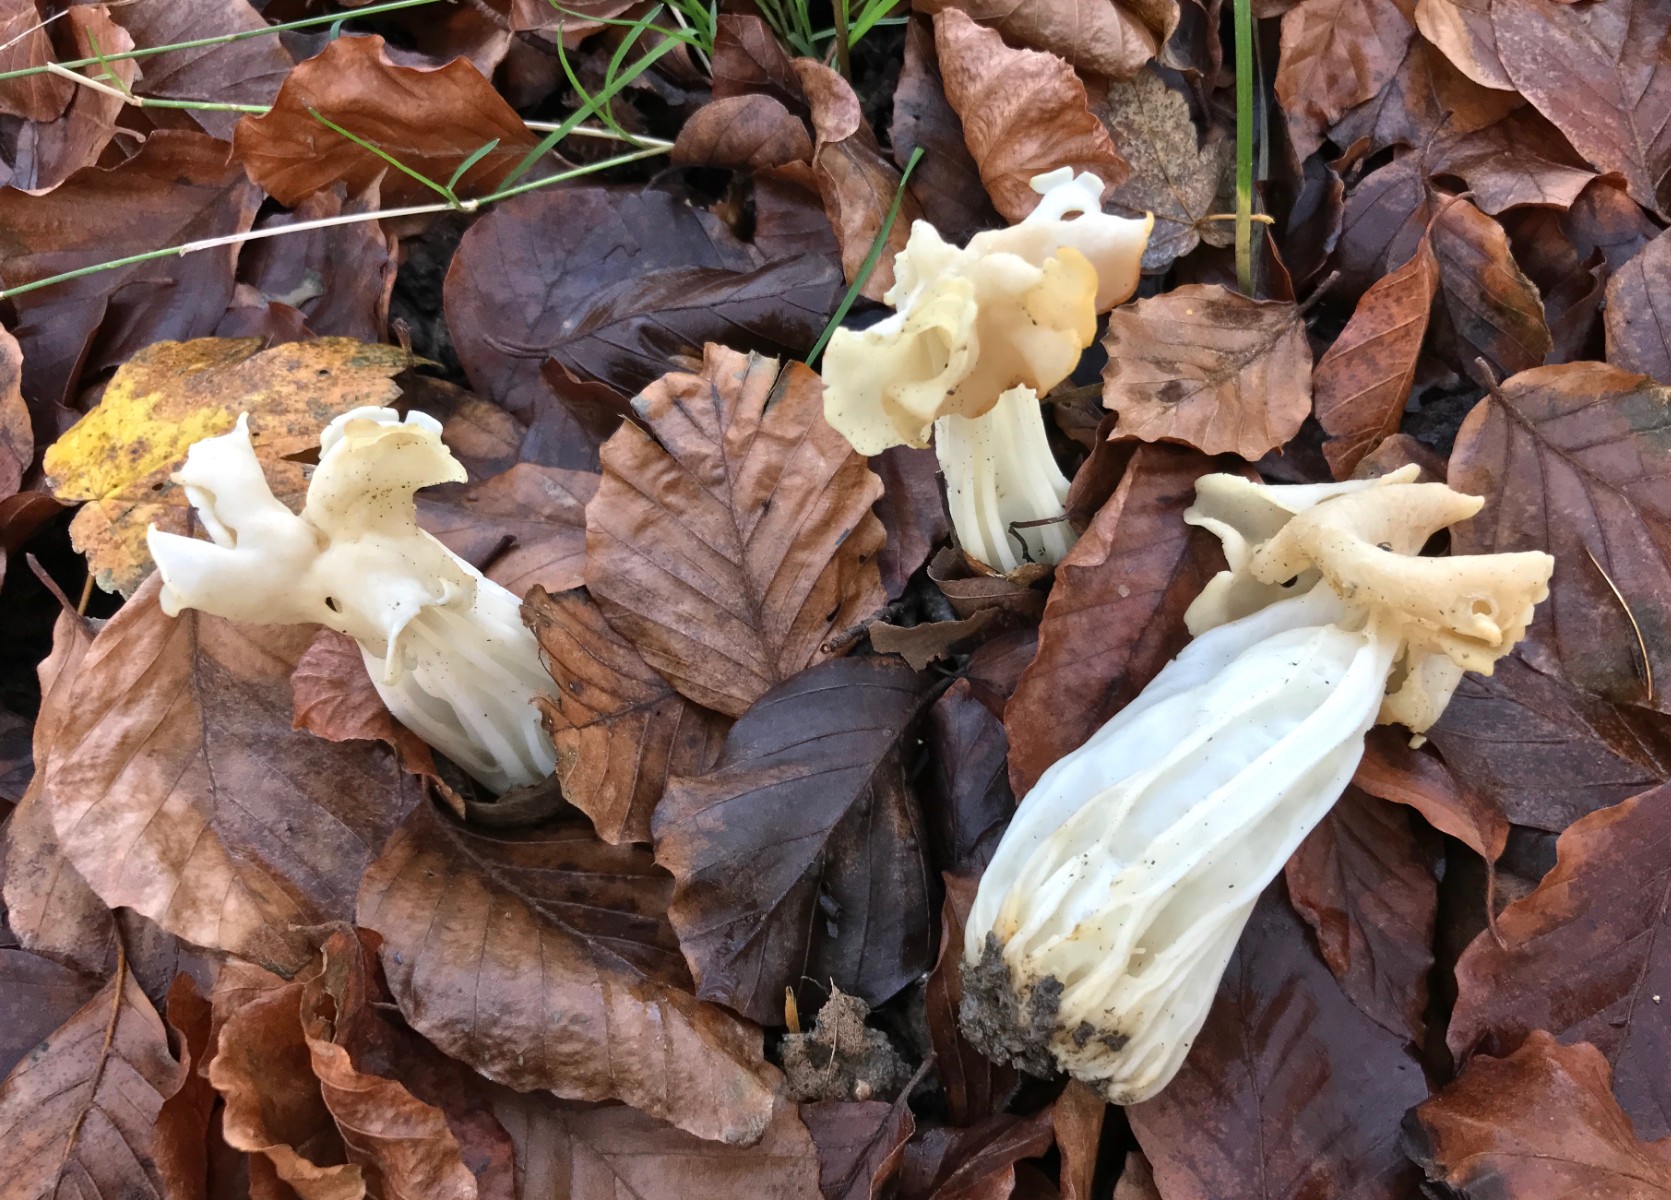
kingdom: Fungi
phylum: Ascomycota
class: Pezizomycetes
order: Pezizales
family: Helvellaceae
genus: Helvella
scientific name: Helvella crispa
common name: kruset foldhat
